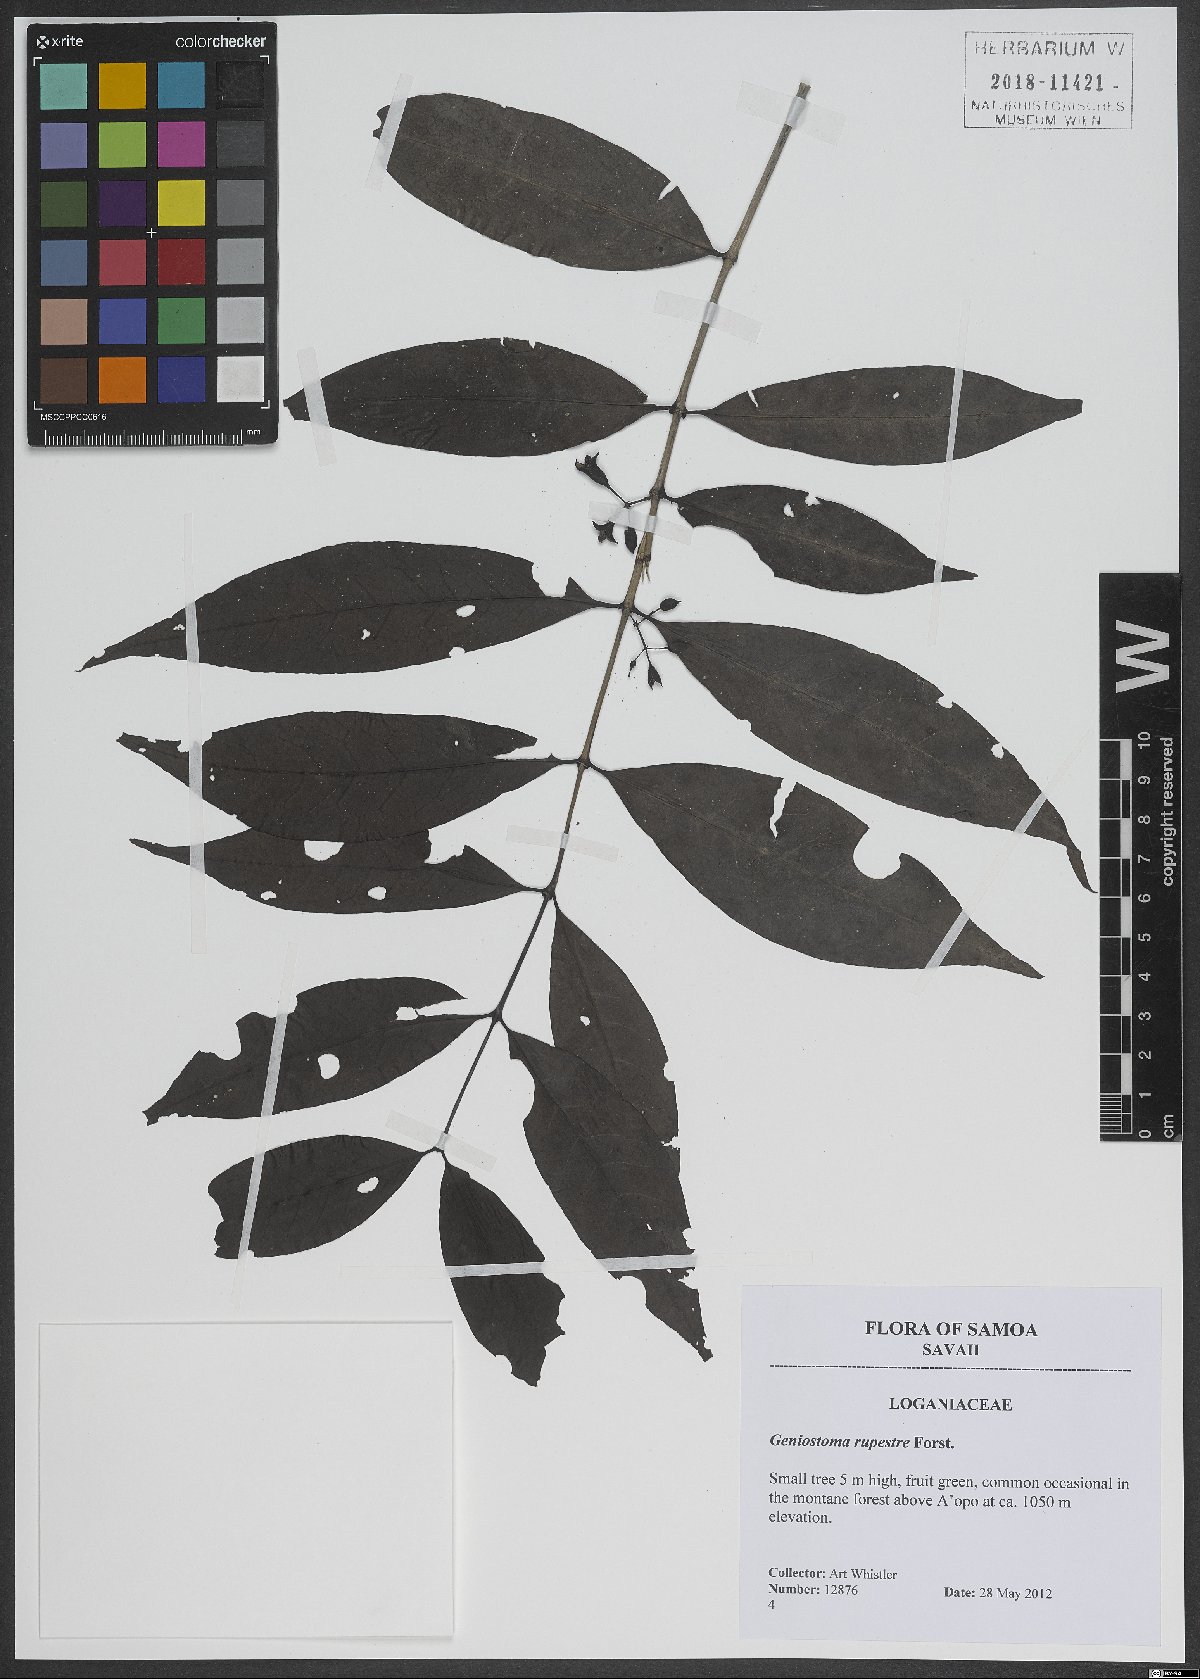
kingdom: Plantae
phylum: Tracheophyta
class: Magnoliopsida
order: Gentianales
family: Loganiaceae
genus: Geniostoma
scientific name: Geniostoma rupestre
